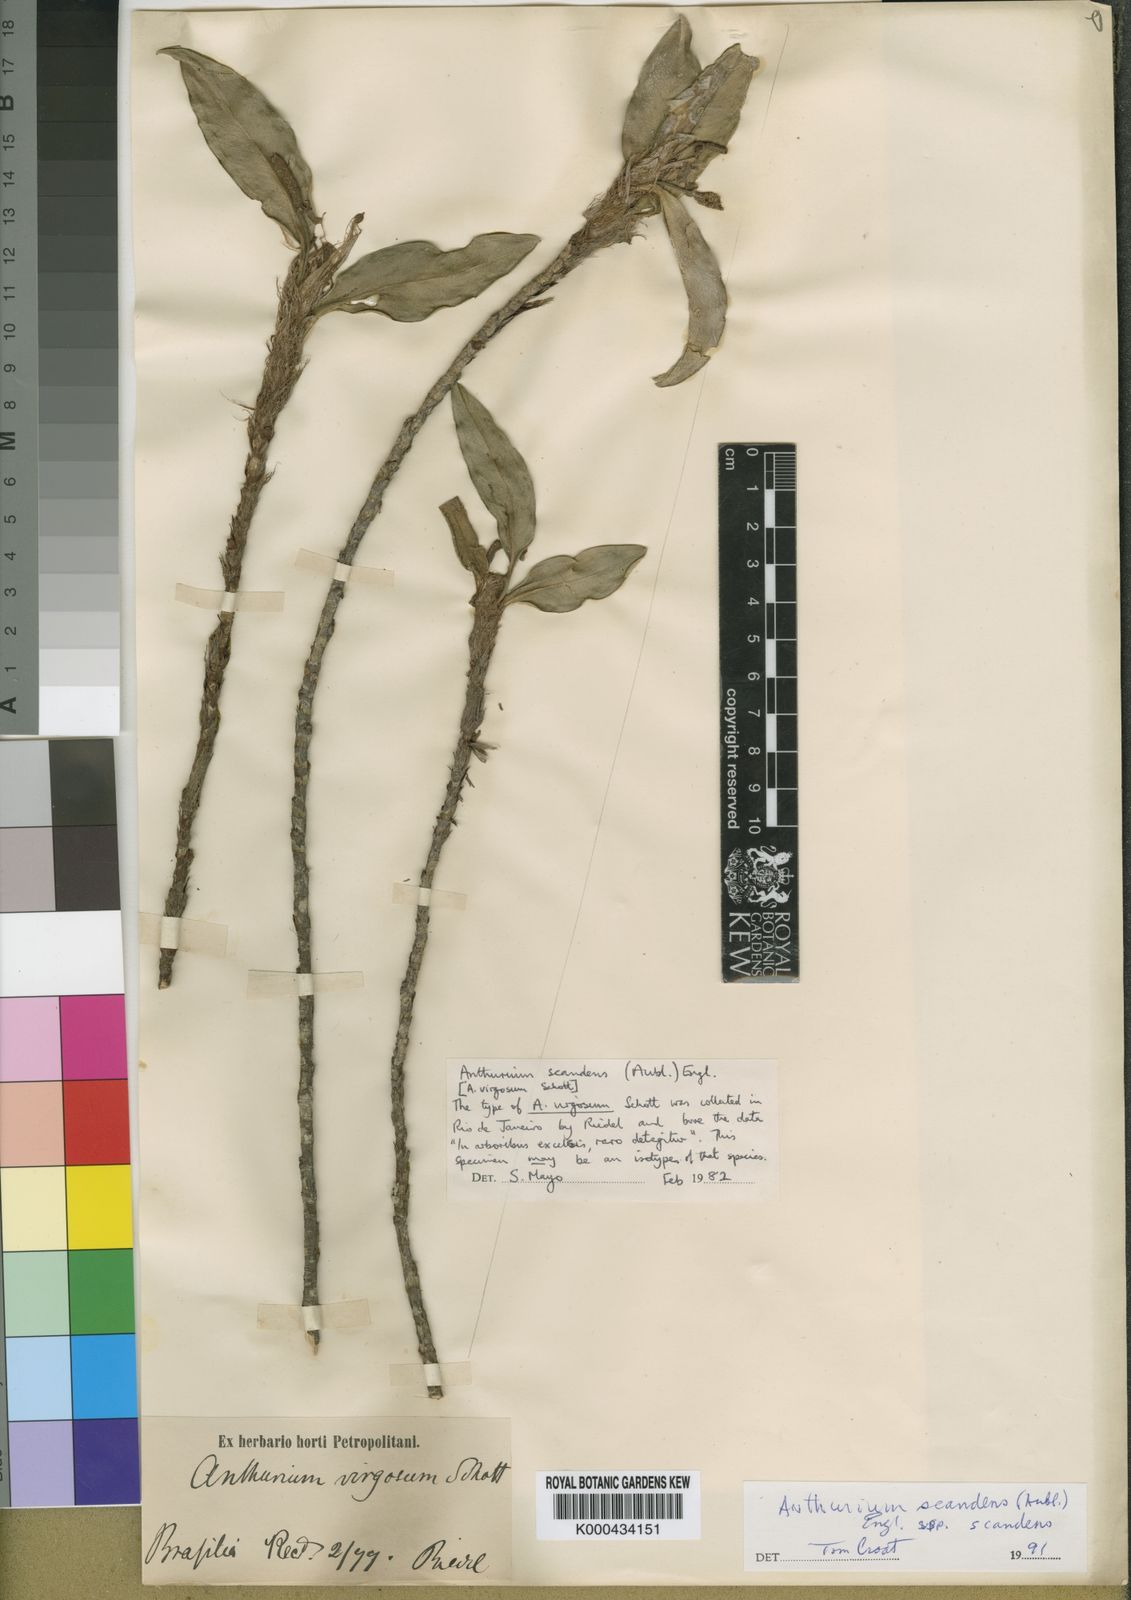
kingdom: Plantae
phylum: Tracheophyta
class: Liliopsida
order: Alismatales
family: Araceae
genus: Anthurium
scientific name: Anthurium scandens
